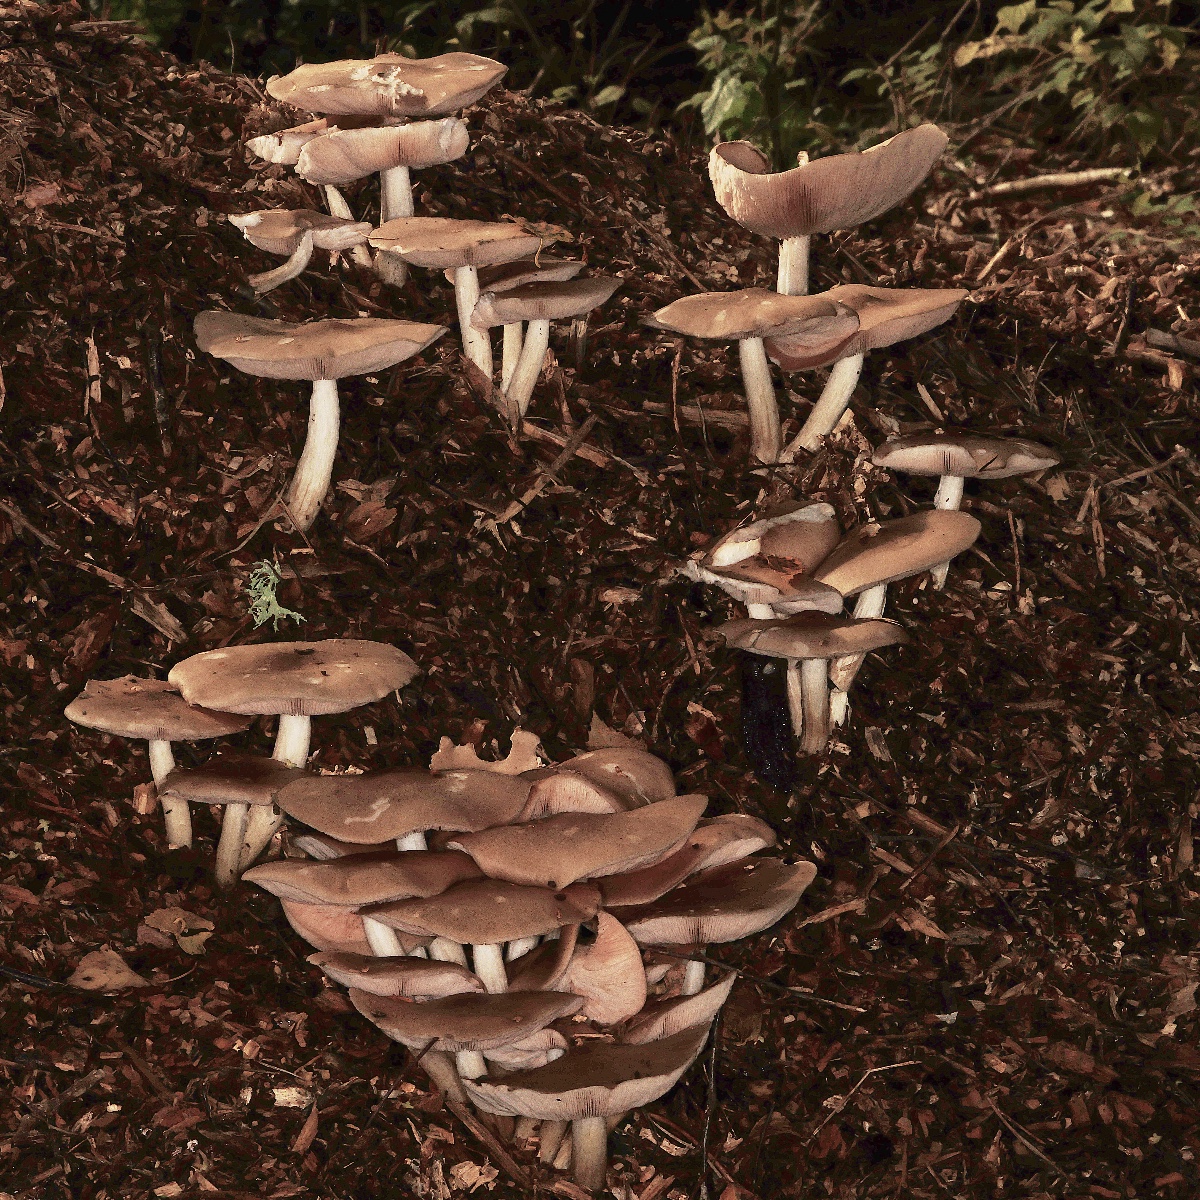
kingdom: Fungi
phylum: Basidiomycota
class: Agaricomycetes
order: Agaricales
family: Pluteaceae
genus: Pluteus
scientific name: Pluteus
